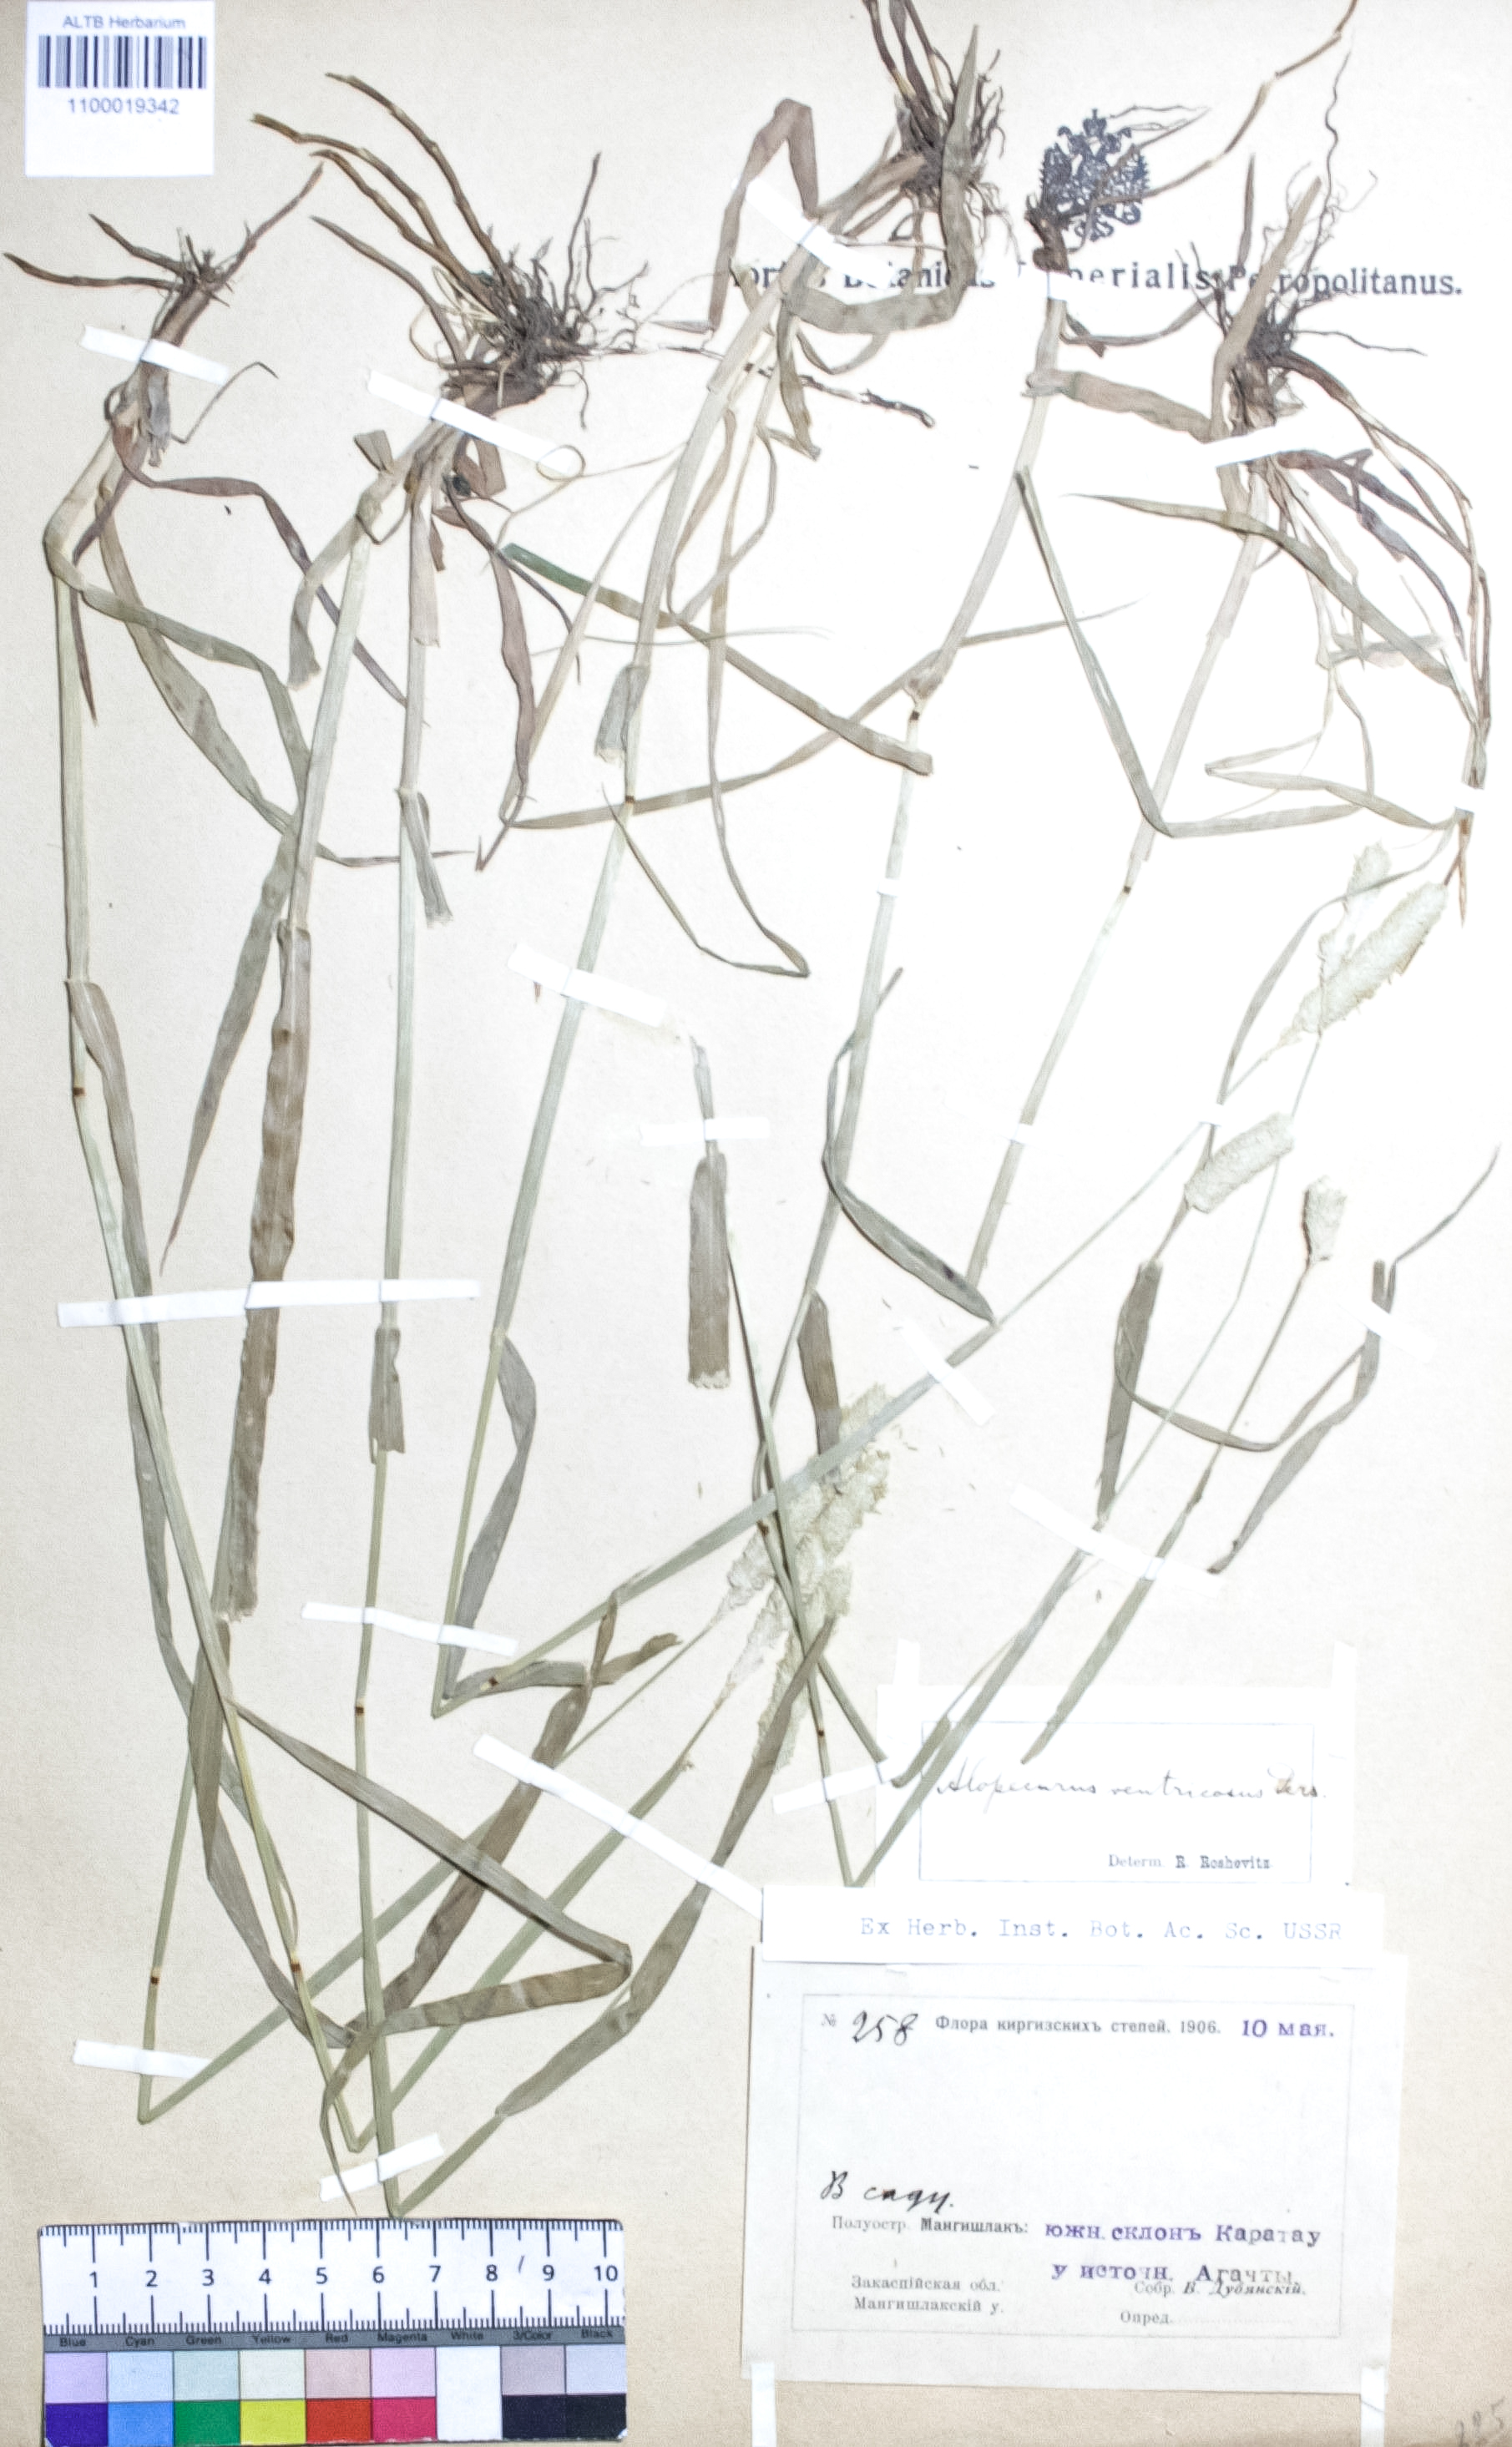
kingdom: Plantae
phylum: Tracheophyta
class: Liliopsida
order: Poales
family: Poaceae
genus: Alopecurus
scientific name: Alopecurus arundinaceus
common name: Creeping meadow foxtail
